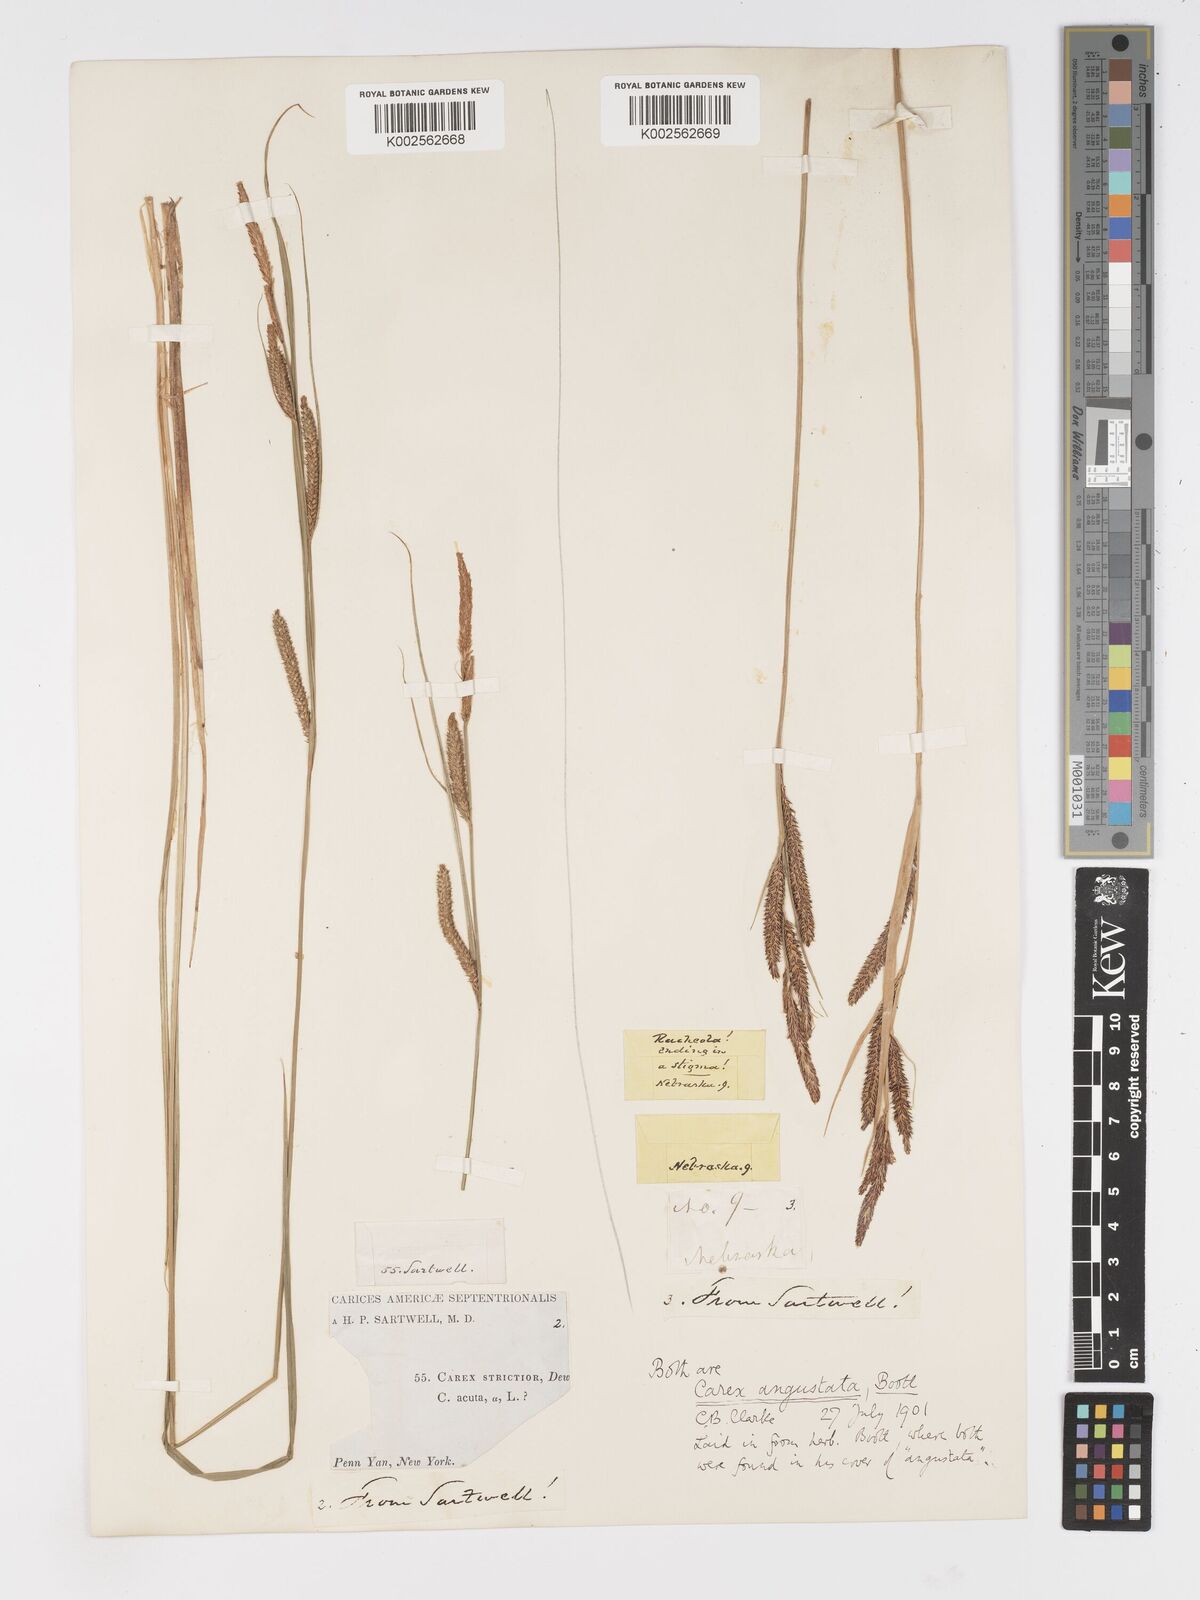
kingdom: Plantae
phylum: Tracheophyta
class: Liliopsida
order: Poales
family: Cyperaceae
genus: Carex
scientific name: Carex stricta
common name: Hummock sedge
